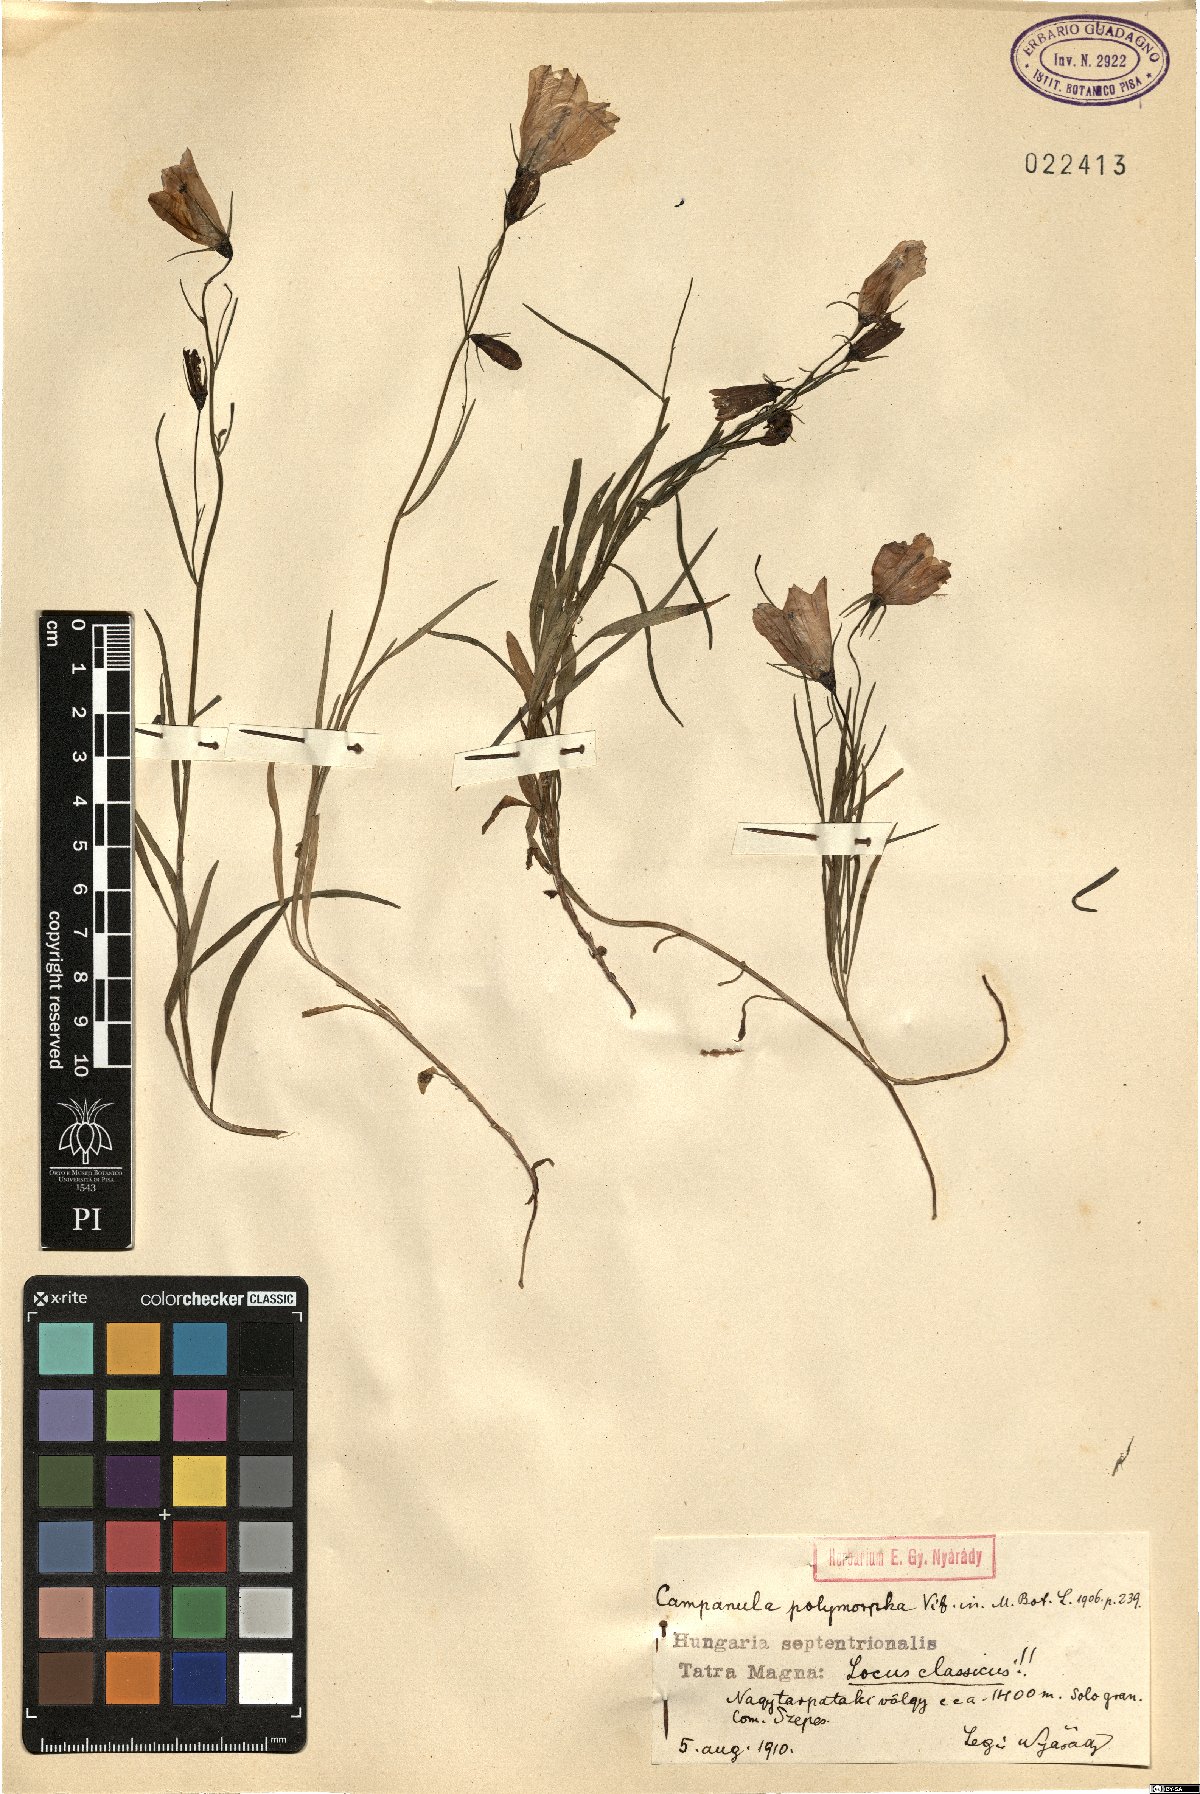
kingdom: Plantae
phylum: Tracheophyta
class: Magnoliopsida
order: Asterales
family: Campanulaceae
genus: Campanula
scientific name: Campanula tatrae
